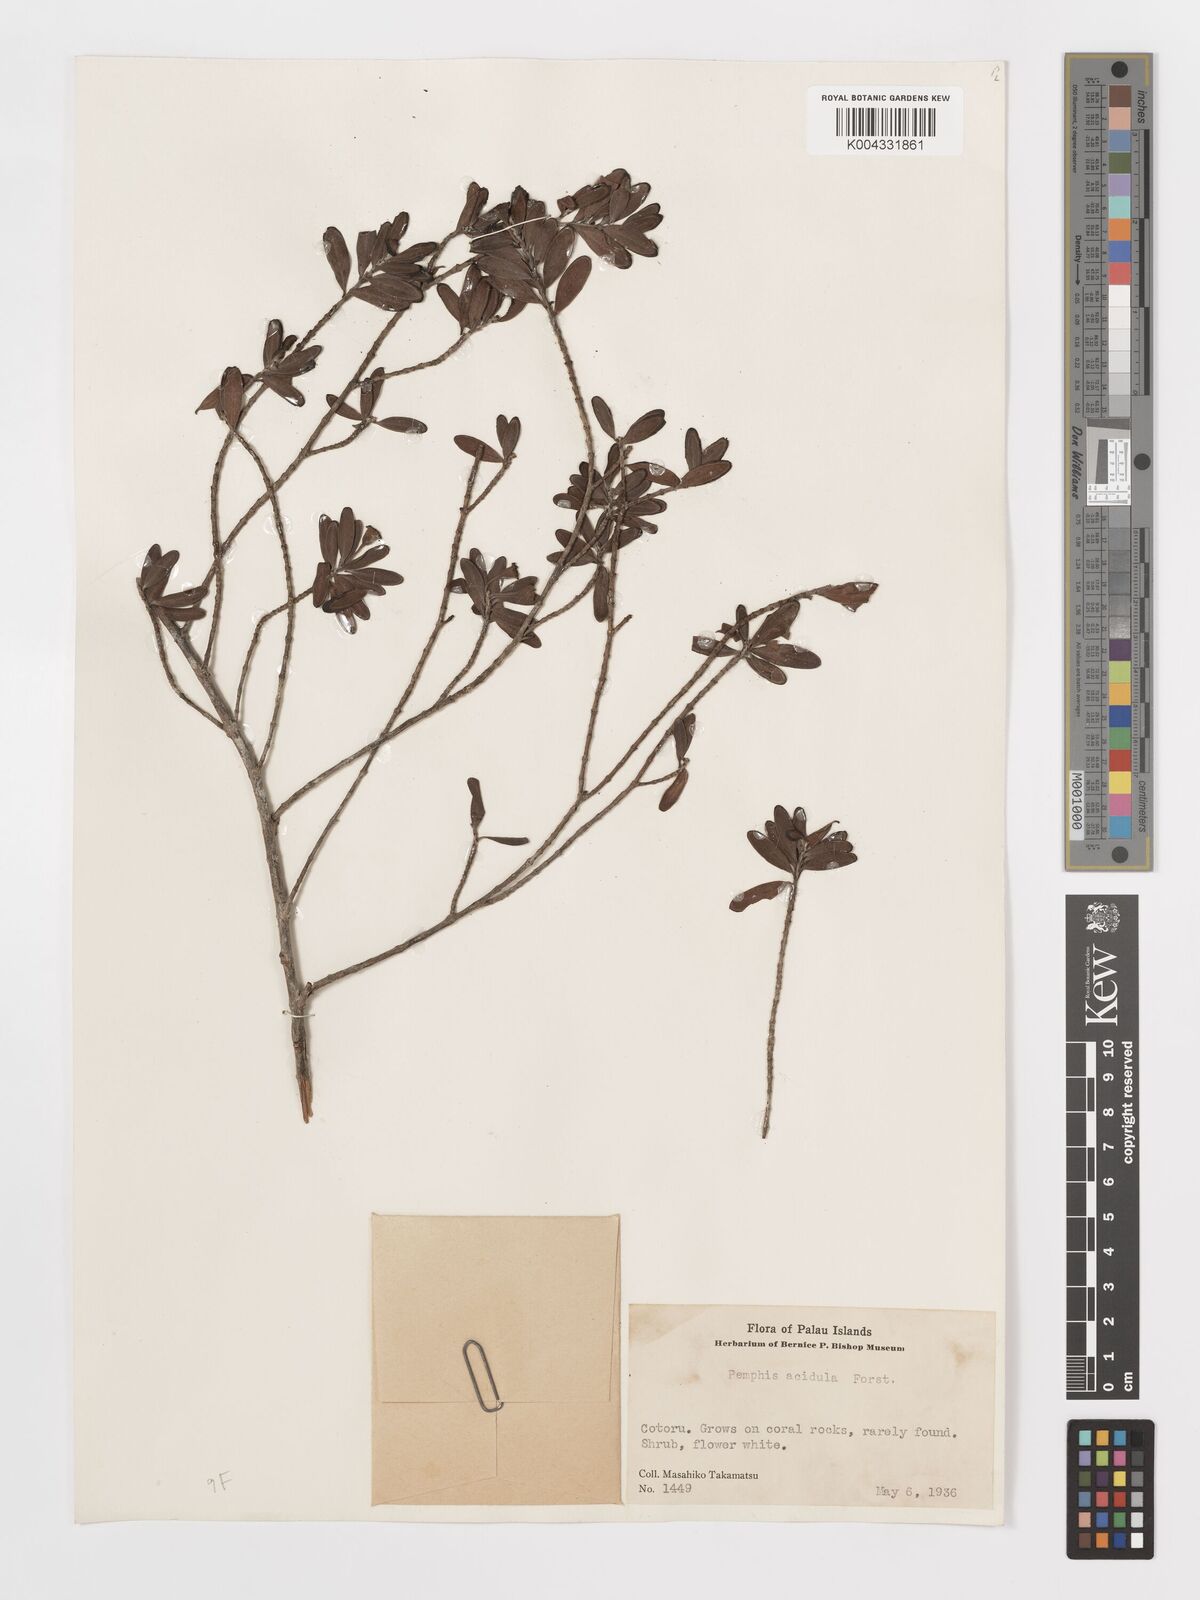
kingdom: Plantae
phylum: Tracheophyta
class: Magnoliopsida
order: Myrtales
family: Lythraceae
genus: Pemphis
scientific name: Pemphis acidula
